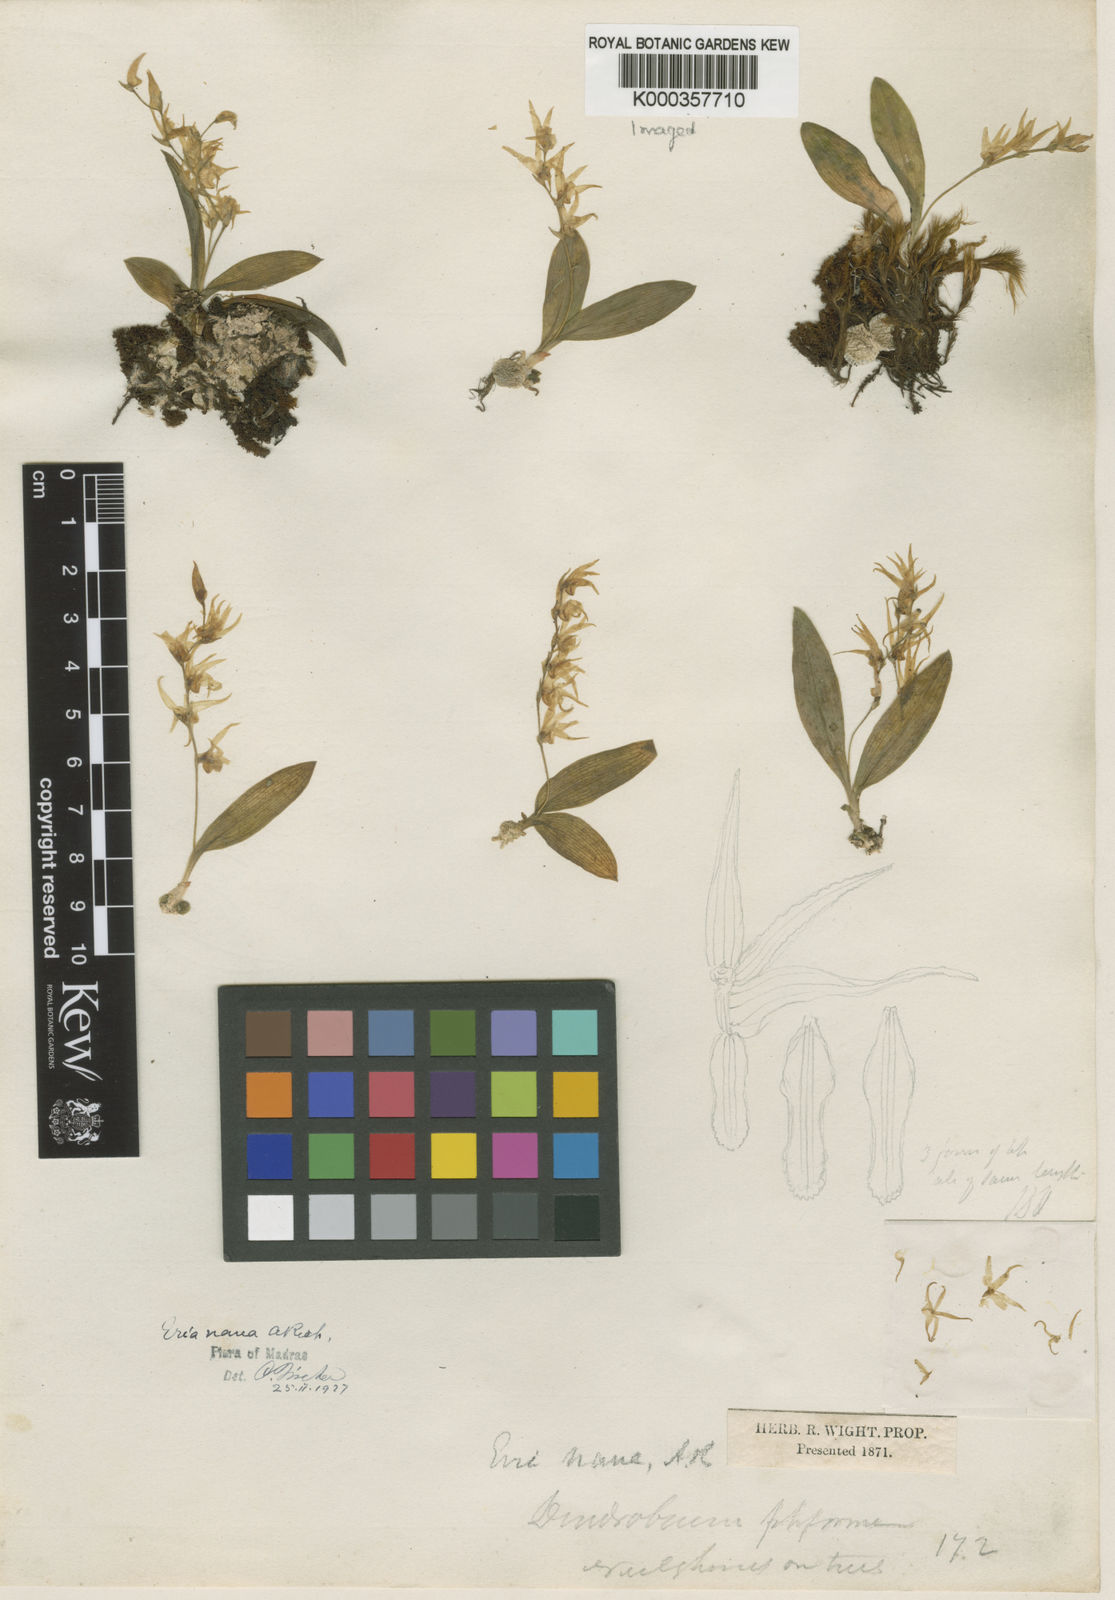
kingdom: Plantae
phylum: Tracheophyta
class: Liliopsida
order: Asparagales
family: Orchidaceae
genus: Porpax
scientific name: Porpax
